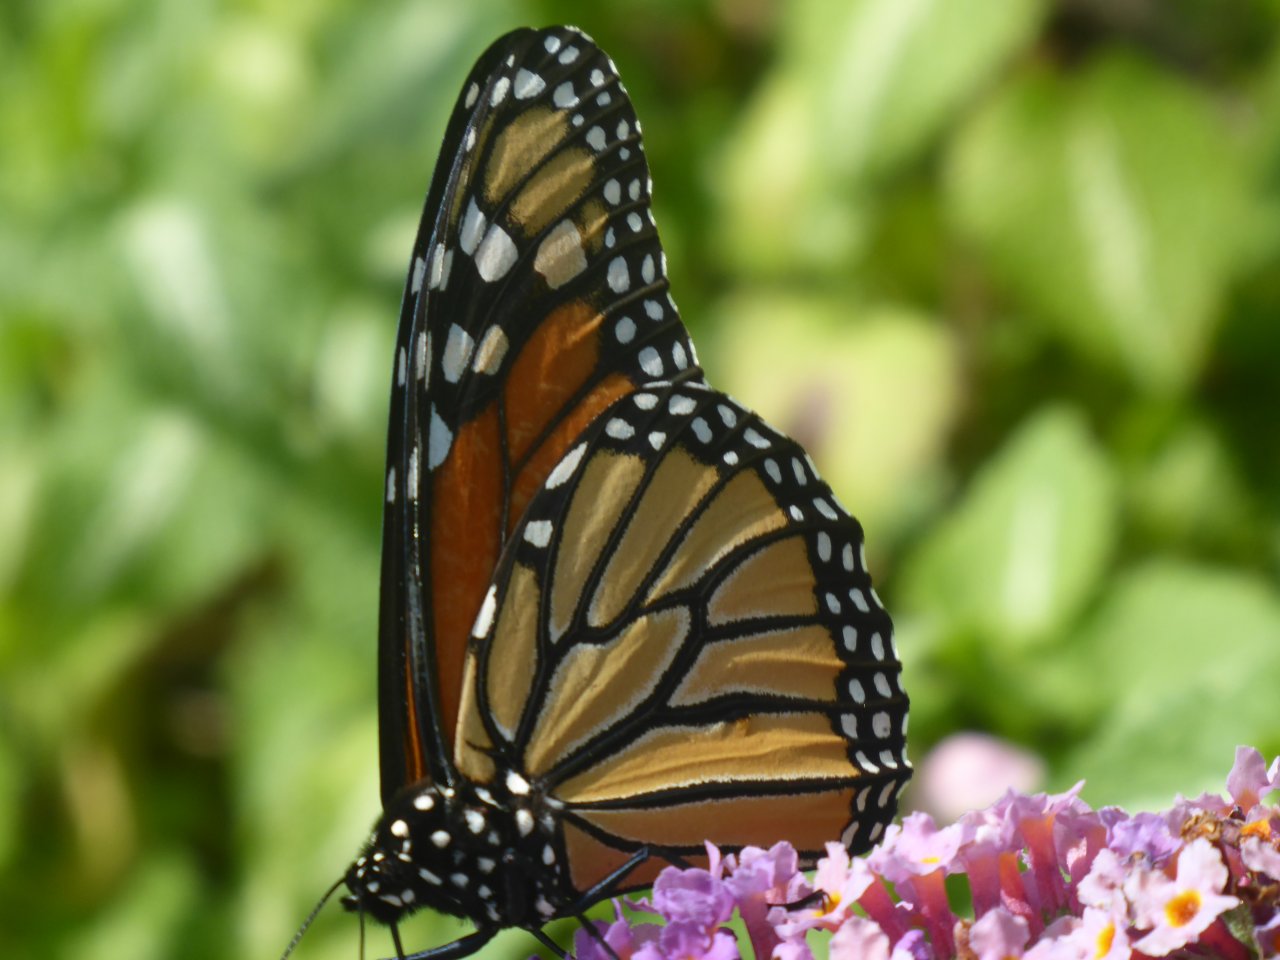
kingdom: Animalia
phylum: Arthropoda
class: Insecta
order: Lepidoptera
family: Nymphalidae
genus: Danaus
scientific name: Danaus plexippus
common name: Monarch
